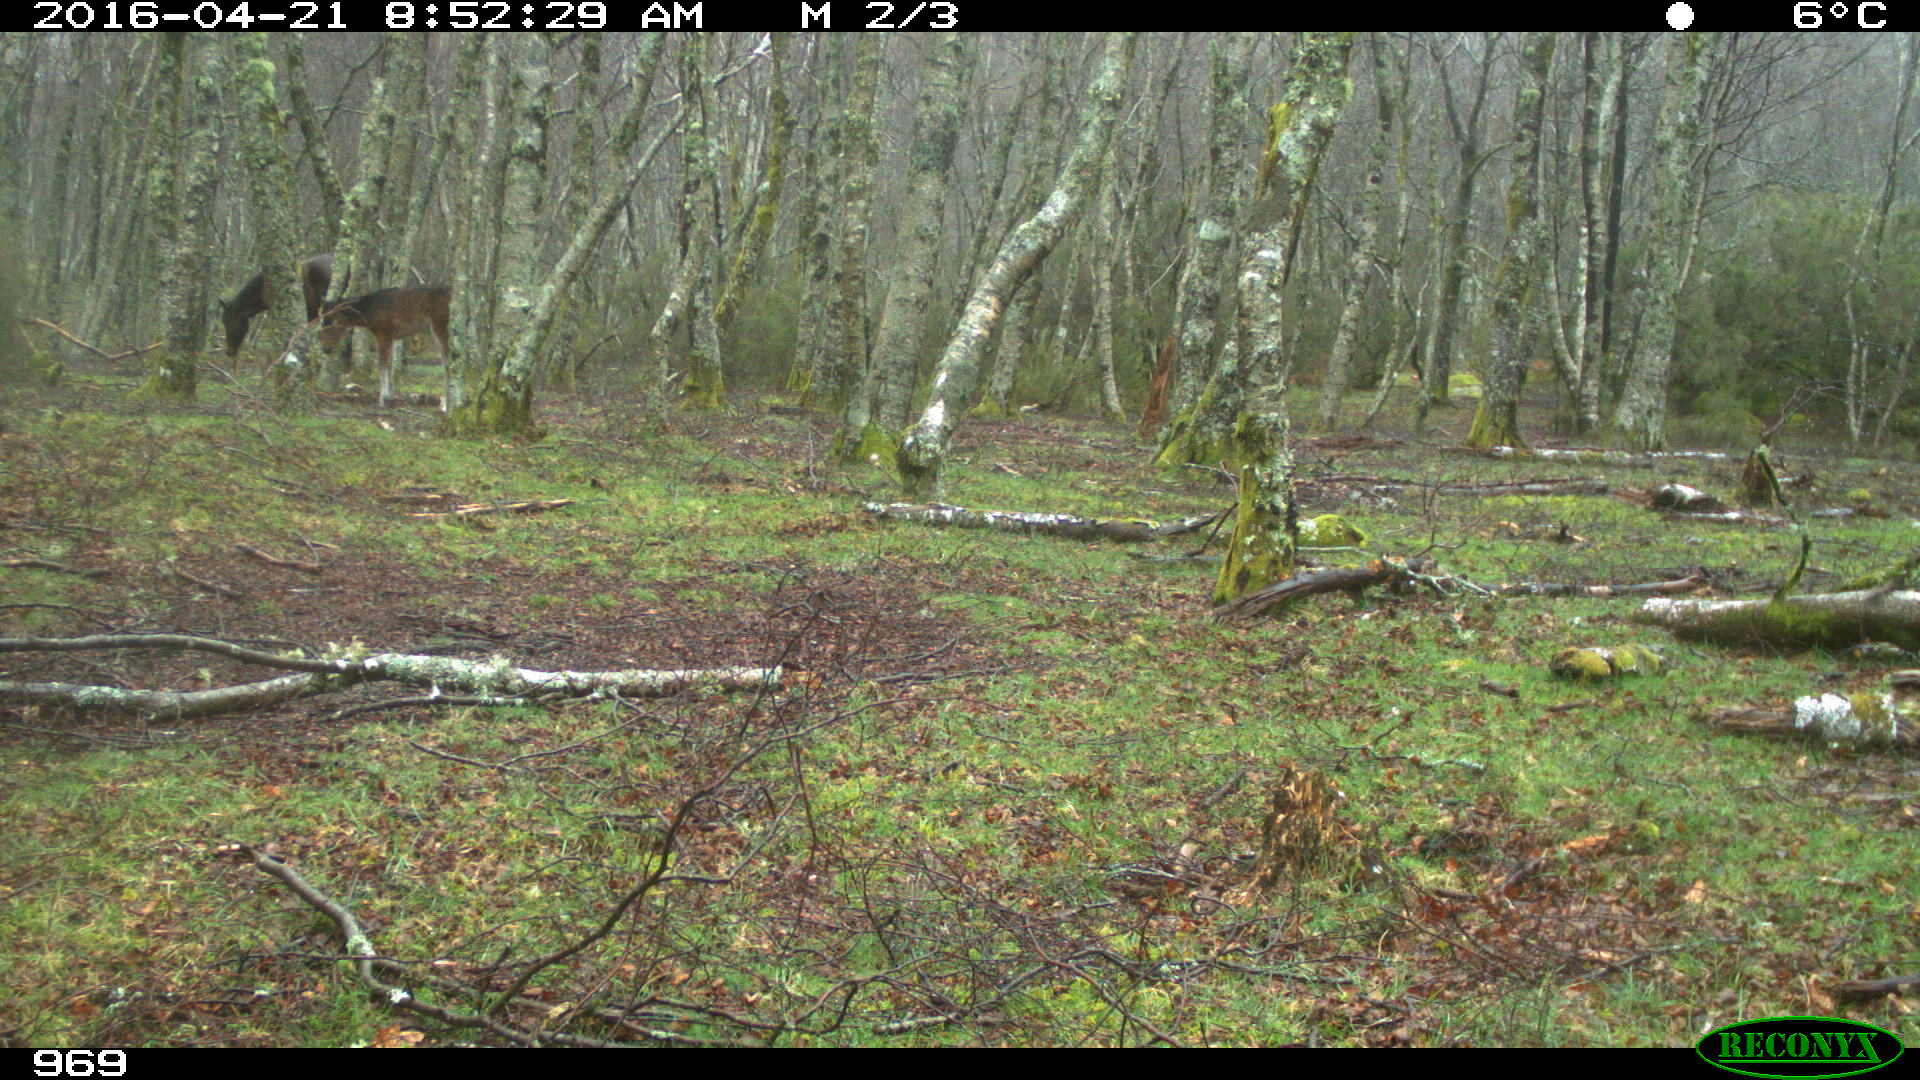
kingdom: Animalia
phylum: Chordata
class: Mammalia
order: Perissodactyla
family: Equidae
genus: Equus
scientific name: Equus caballus
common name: Horse
